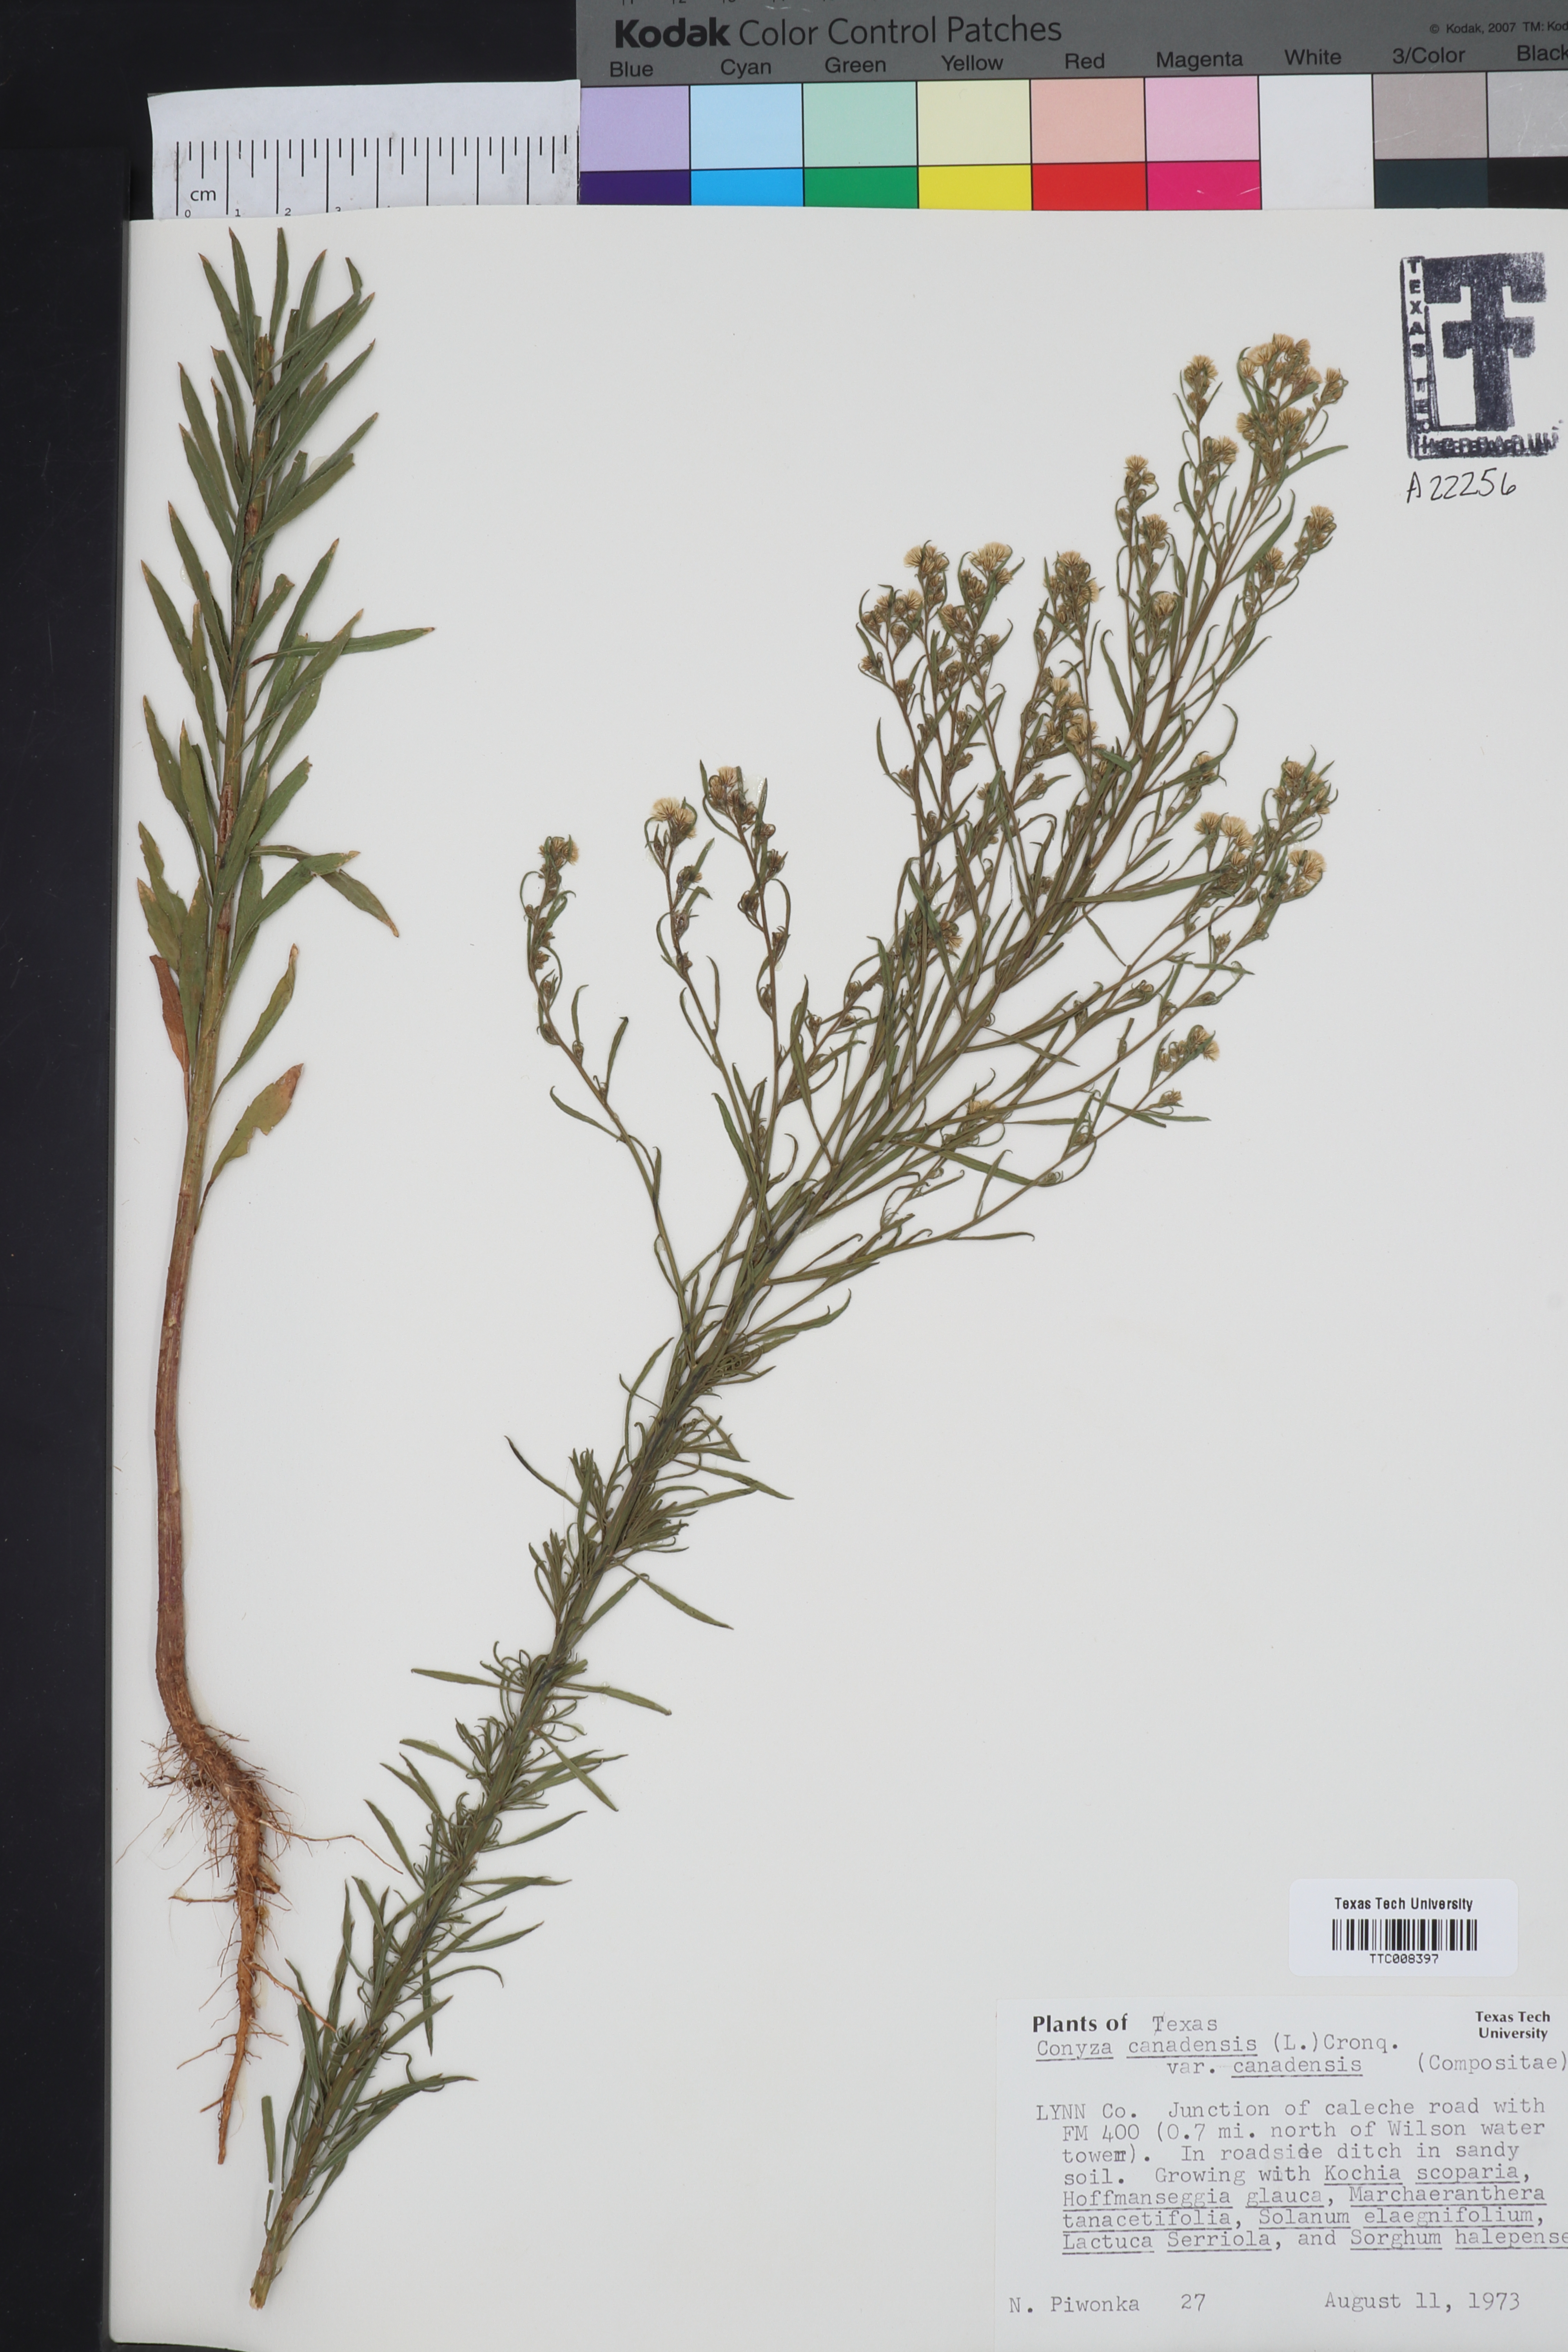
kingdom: Plantae
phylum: Tracheophyta
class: Magnoliopsida
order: Asterales
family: Asteraceae
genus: Erigeron
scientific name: Erigeron canadensis
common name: Canadian fleabane
